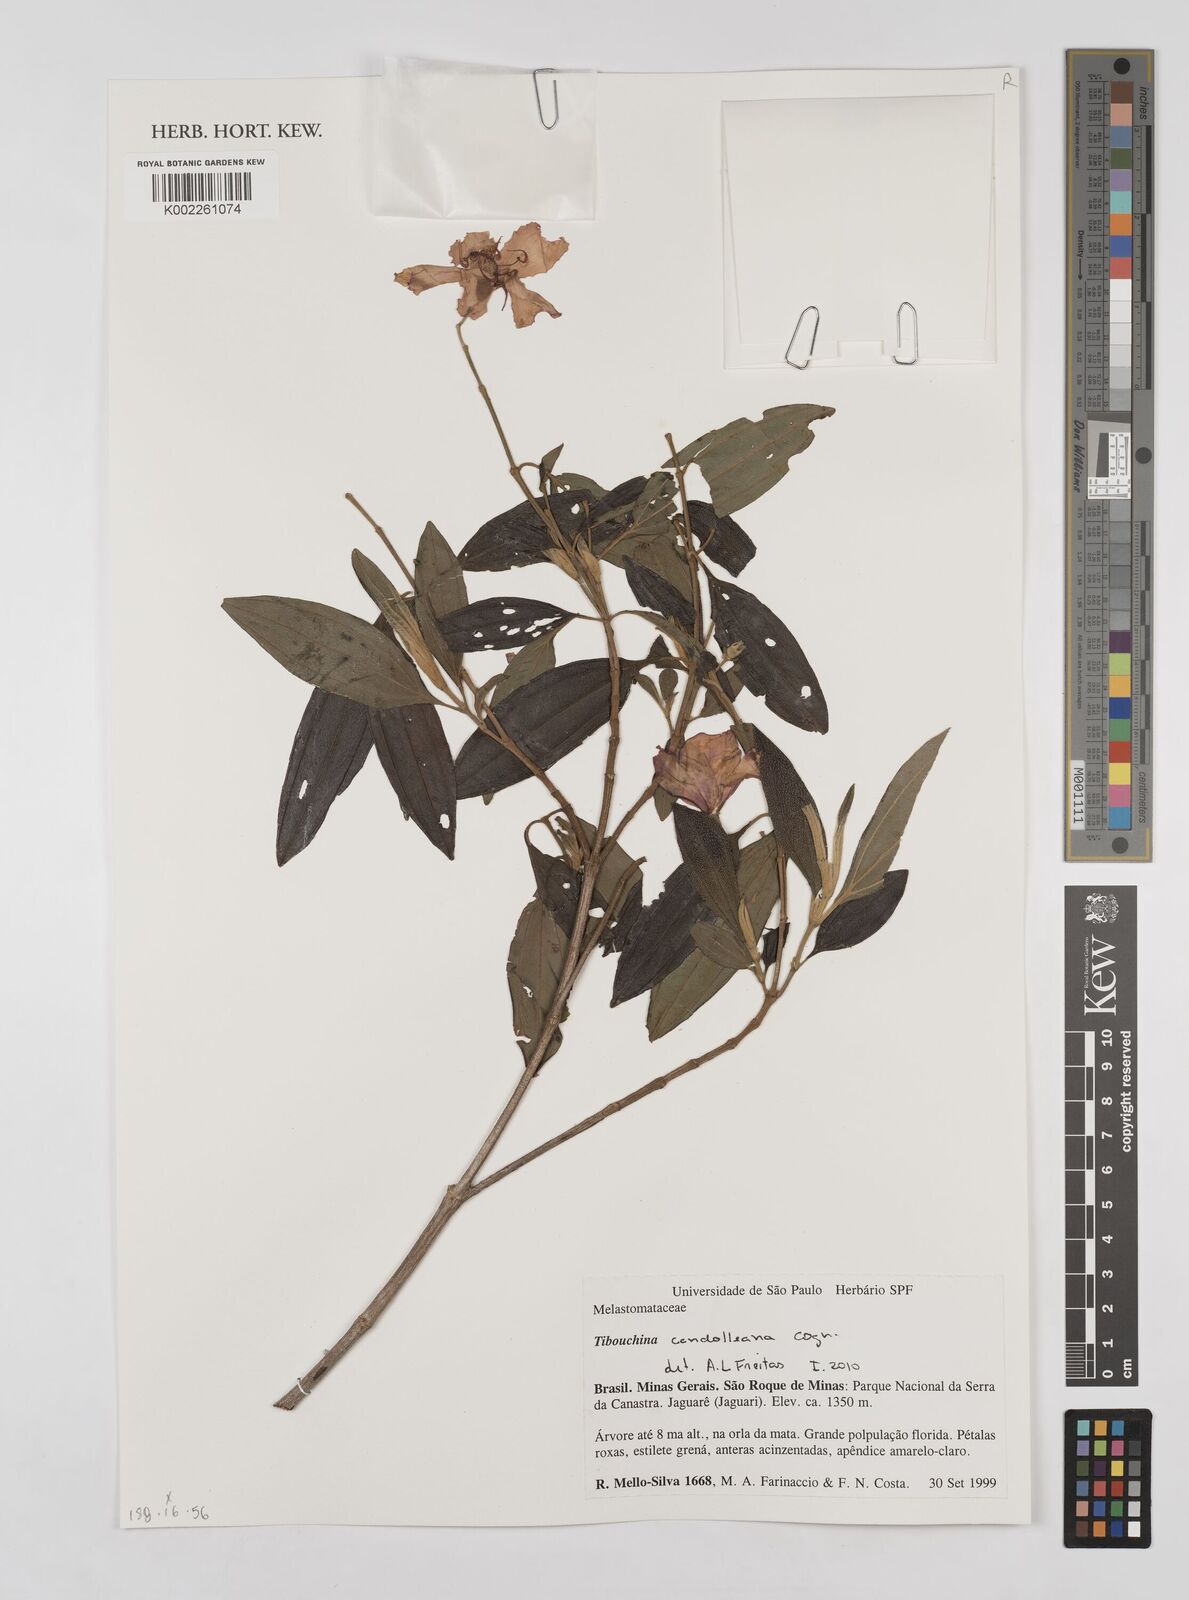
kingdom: Plantae
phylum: Tracheophyta
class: Magnoliopsida
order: Myrtales
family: Melastomataceae
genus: Pleroma
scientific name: Pleroma candolleanum
